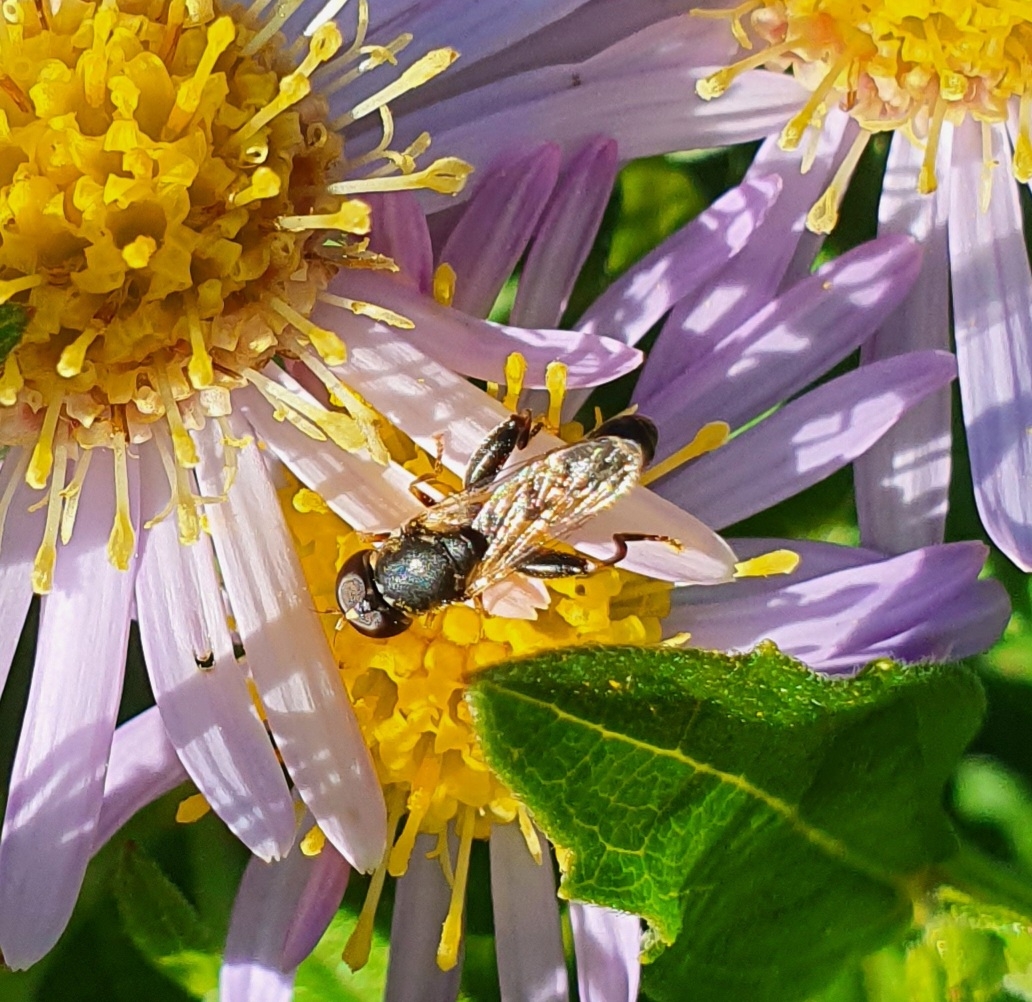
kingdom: Animalia
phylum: Arthropoda
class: Insecta
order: Diptera
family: Syrphidae
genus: Syritta
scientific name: Syritta pipiens
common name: Kompost-svirreflue
